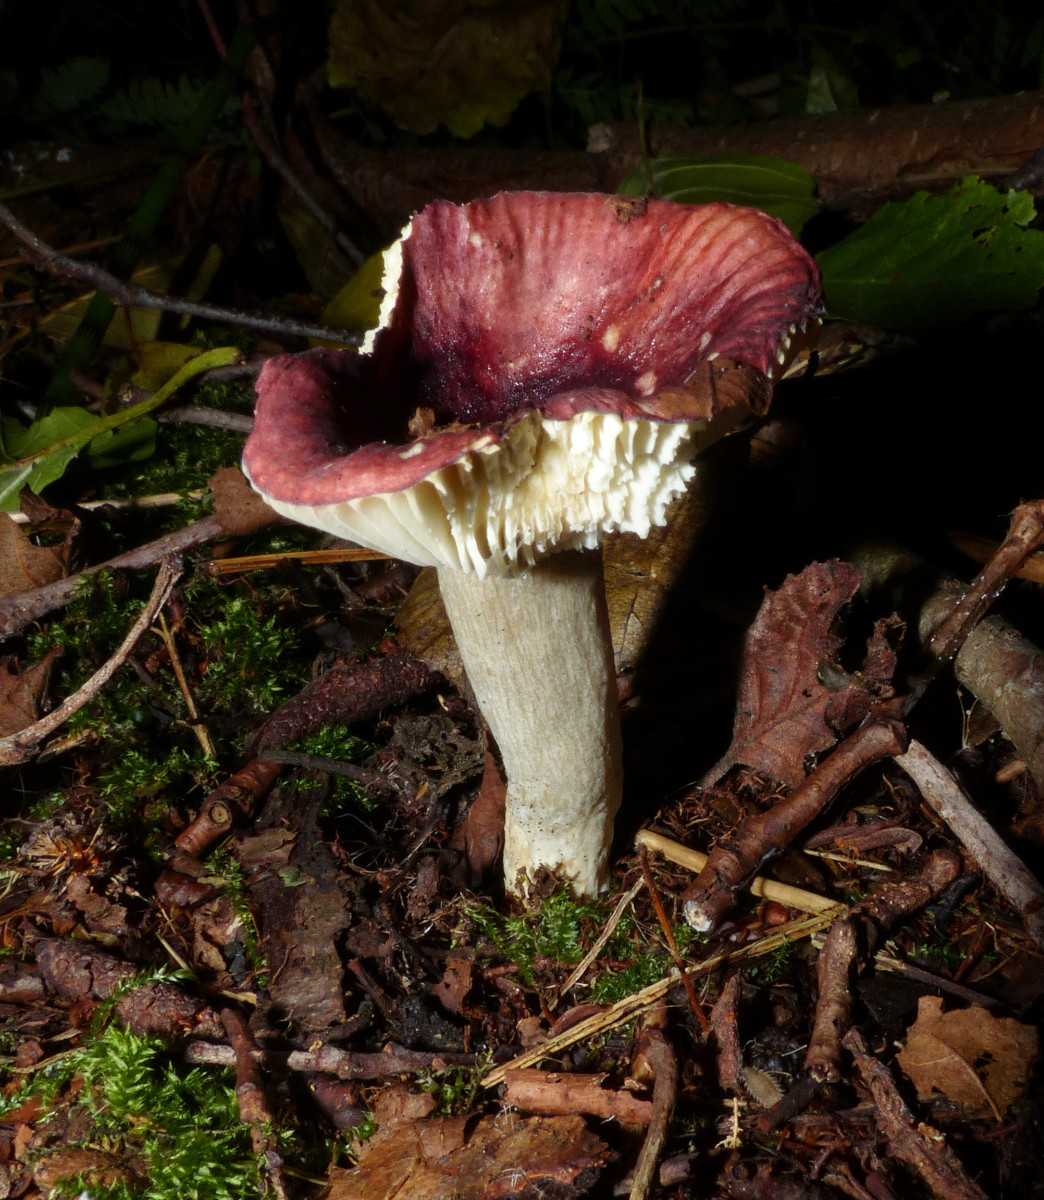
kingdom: Fungi
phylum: Basidiomycota
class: Agaricomycetes
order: Russulales
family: Russulaceae
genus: Russula
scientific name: Russula alnetorum
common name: elle-skørhat
